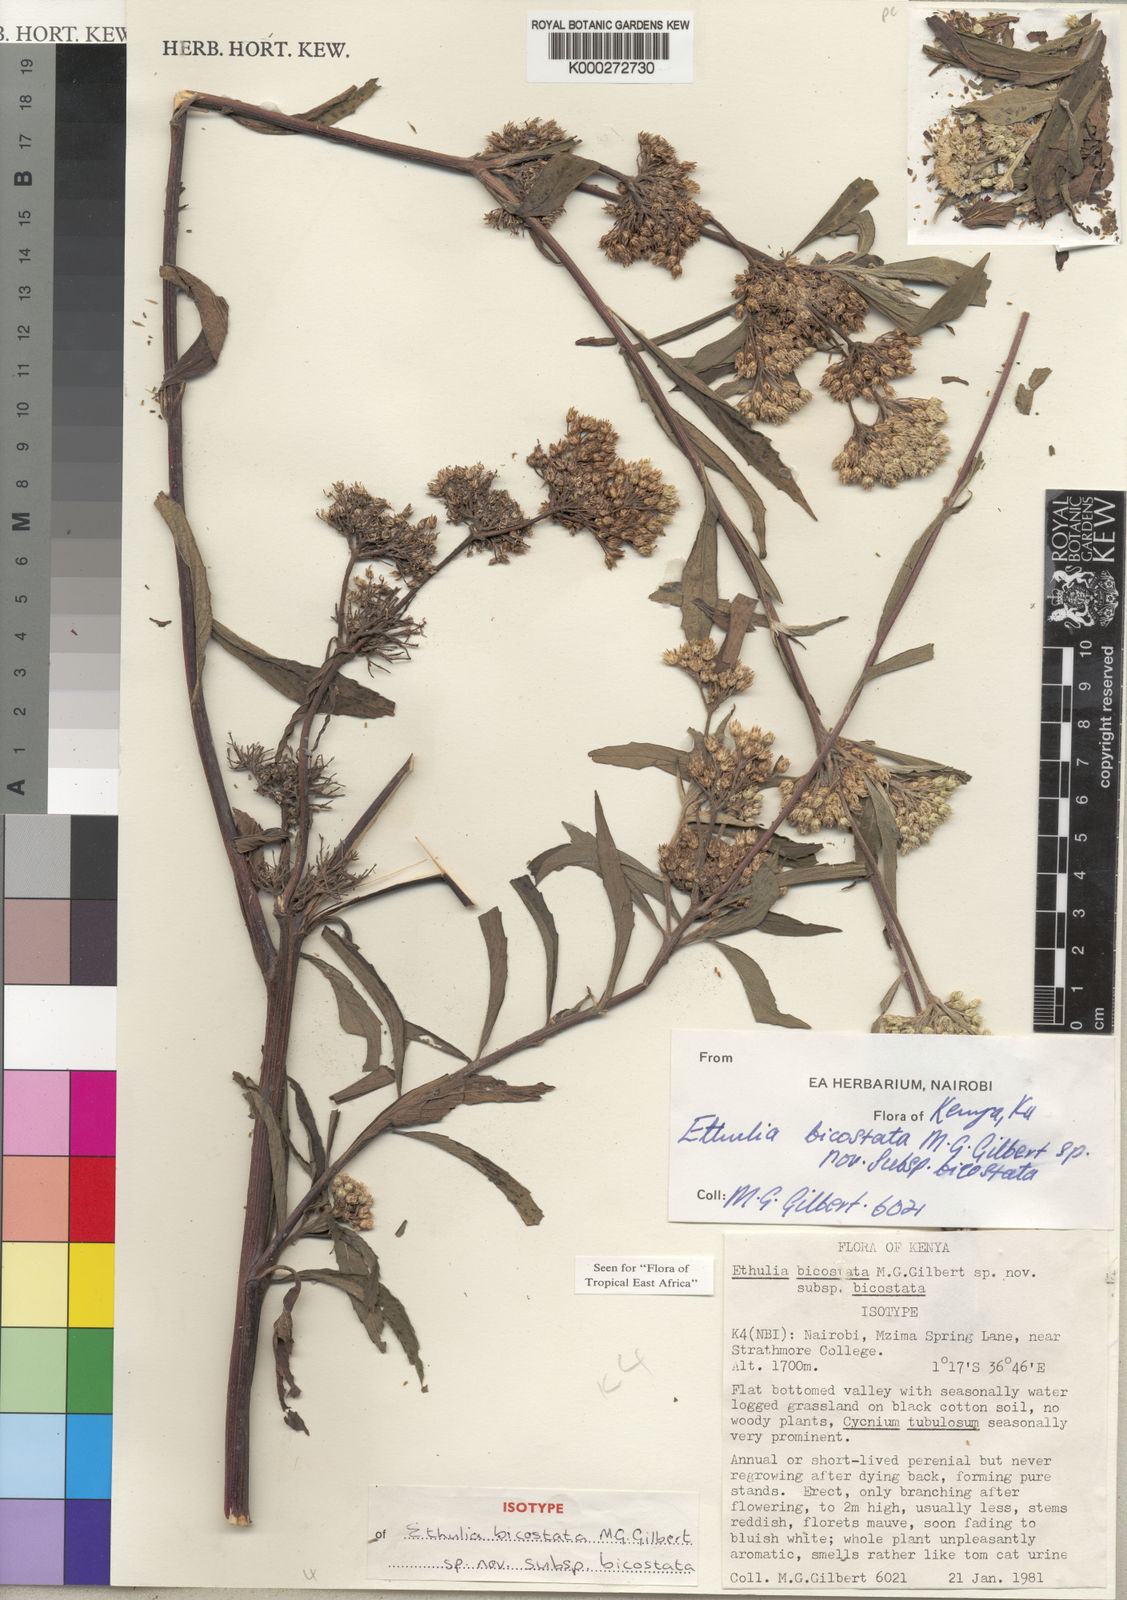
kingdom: Plantae
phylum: Tracheophyta
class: Magnoliopsida
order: Asterales
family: Asteraceae
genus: Ethulia
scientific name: Ethulia bicostata
